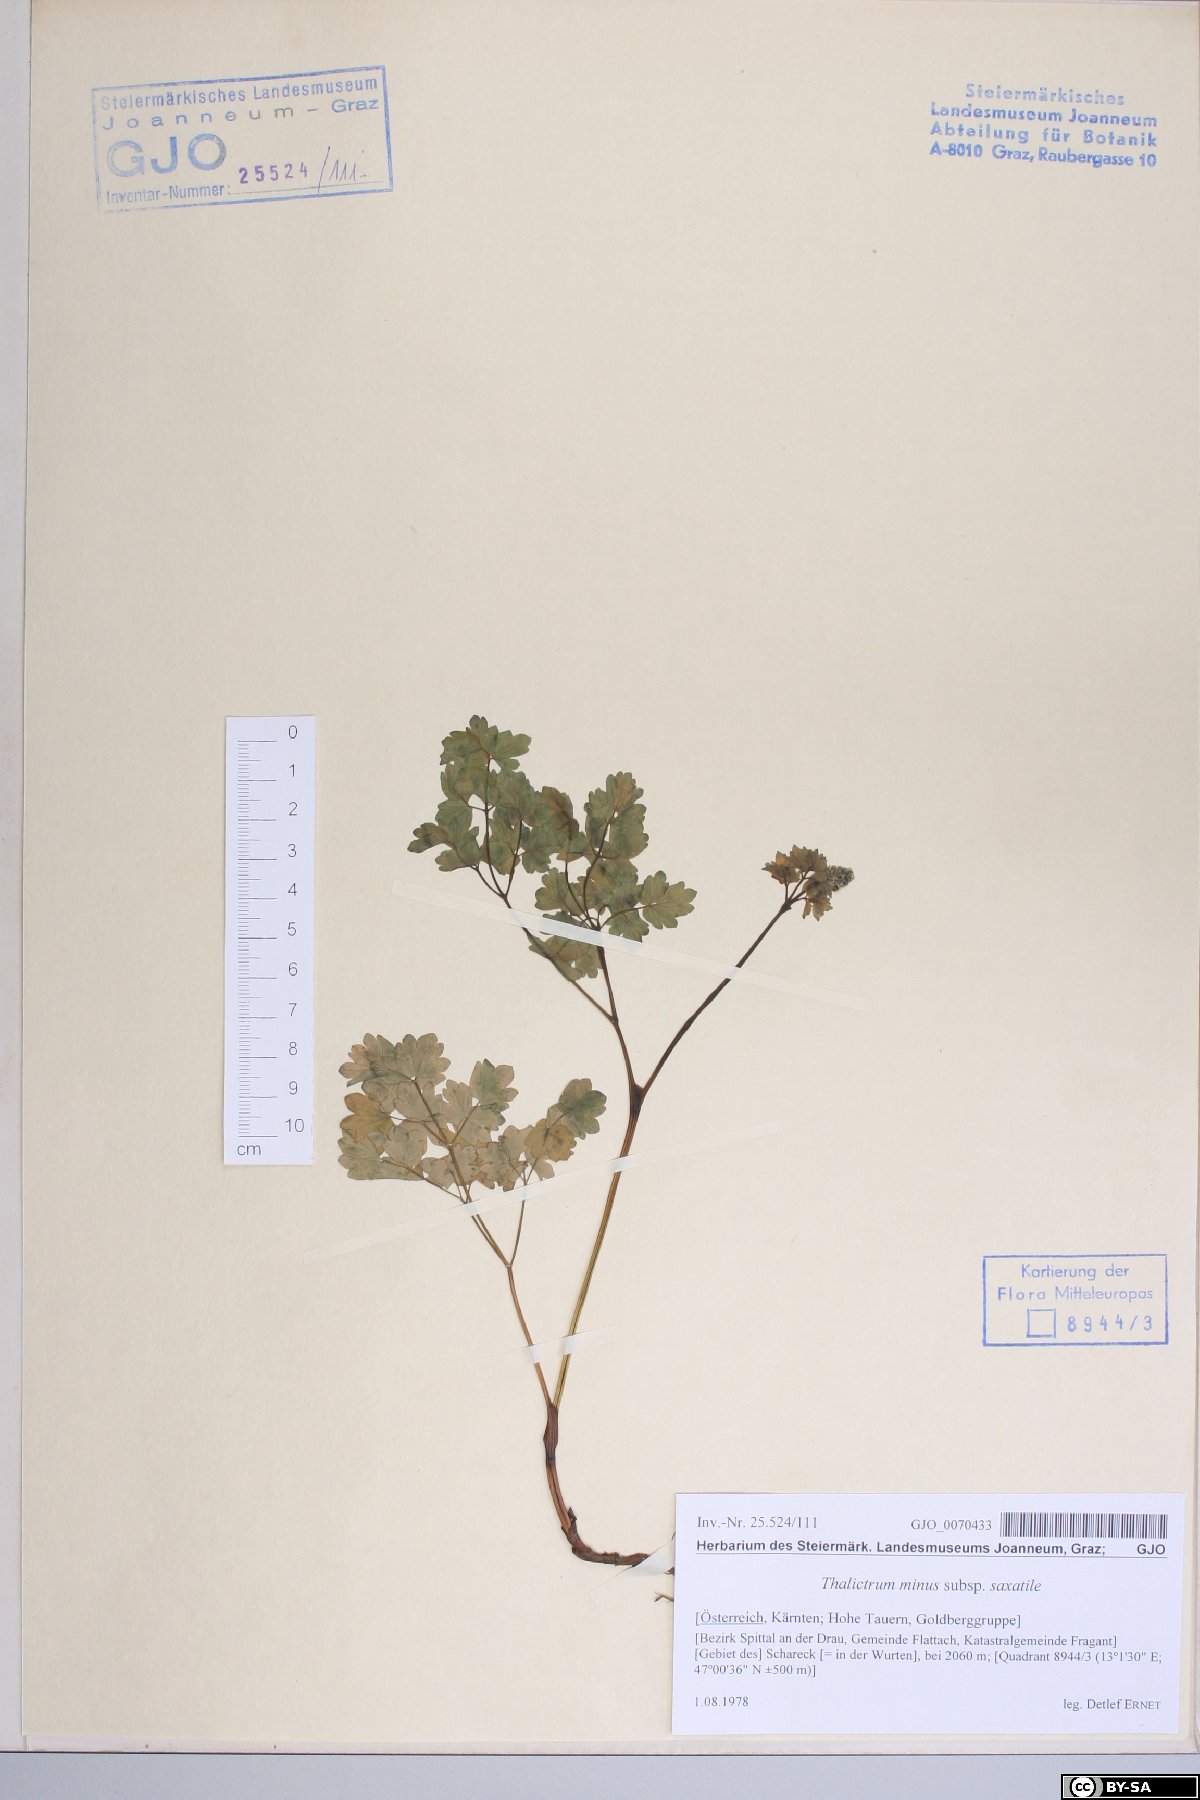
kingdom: Plantae
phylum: Tracheophyta
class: Magnoliopsida
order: Ranunculales
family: Ranunculaceae
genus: Thalictrum
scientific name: Thalictrum minus
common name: Lesser meadow-rue
